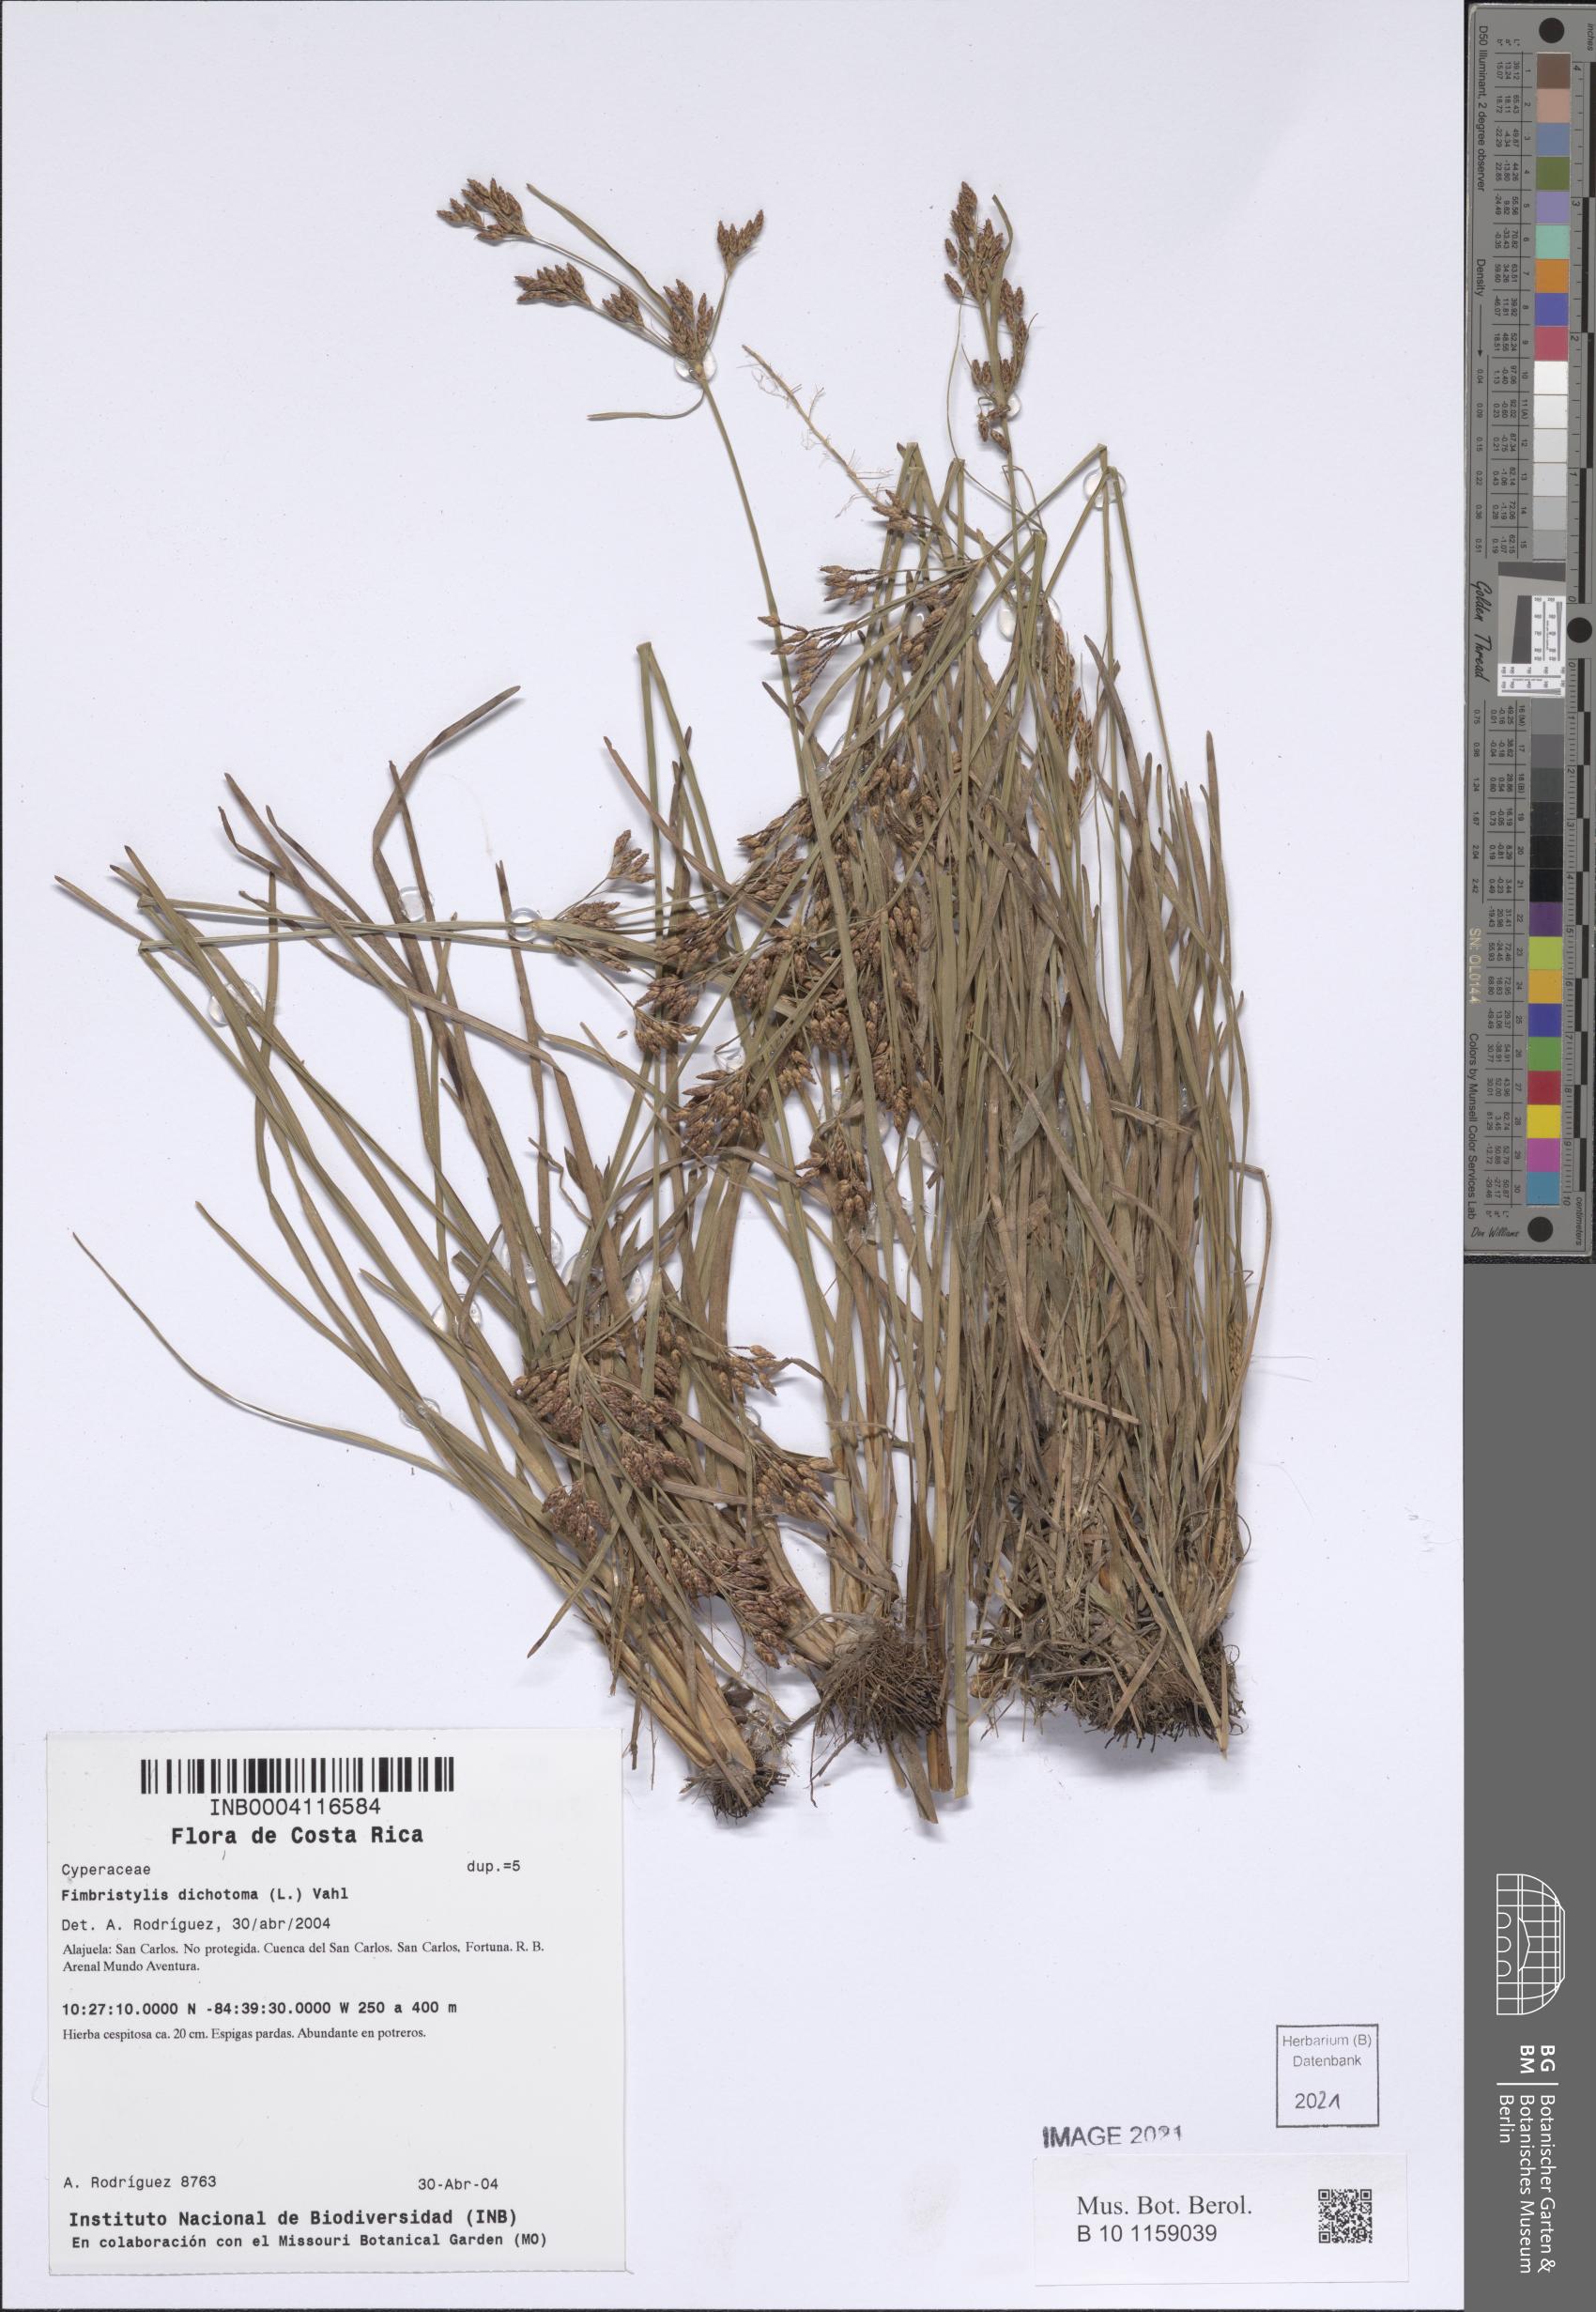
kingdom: Plantae
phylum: Tracheophyta
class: Liliopsida
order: Poales
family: Cyperaceae
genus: Fimbristylis
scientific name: Fimbristylis dichotoma
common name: Forked fimbry
